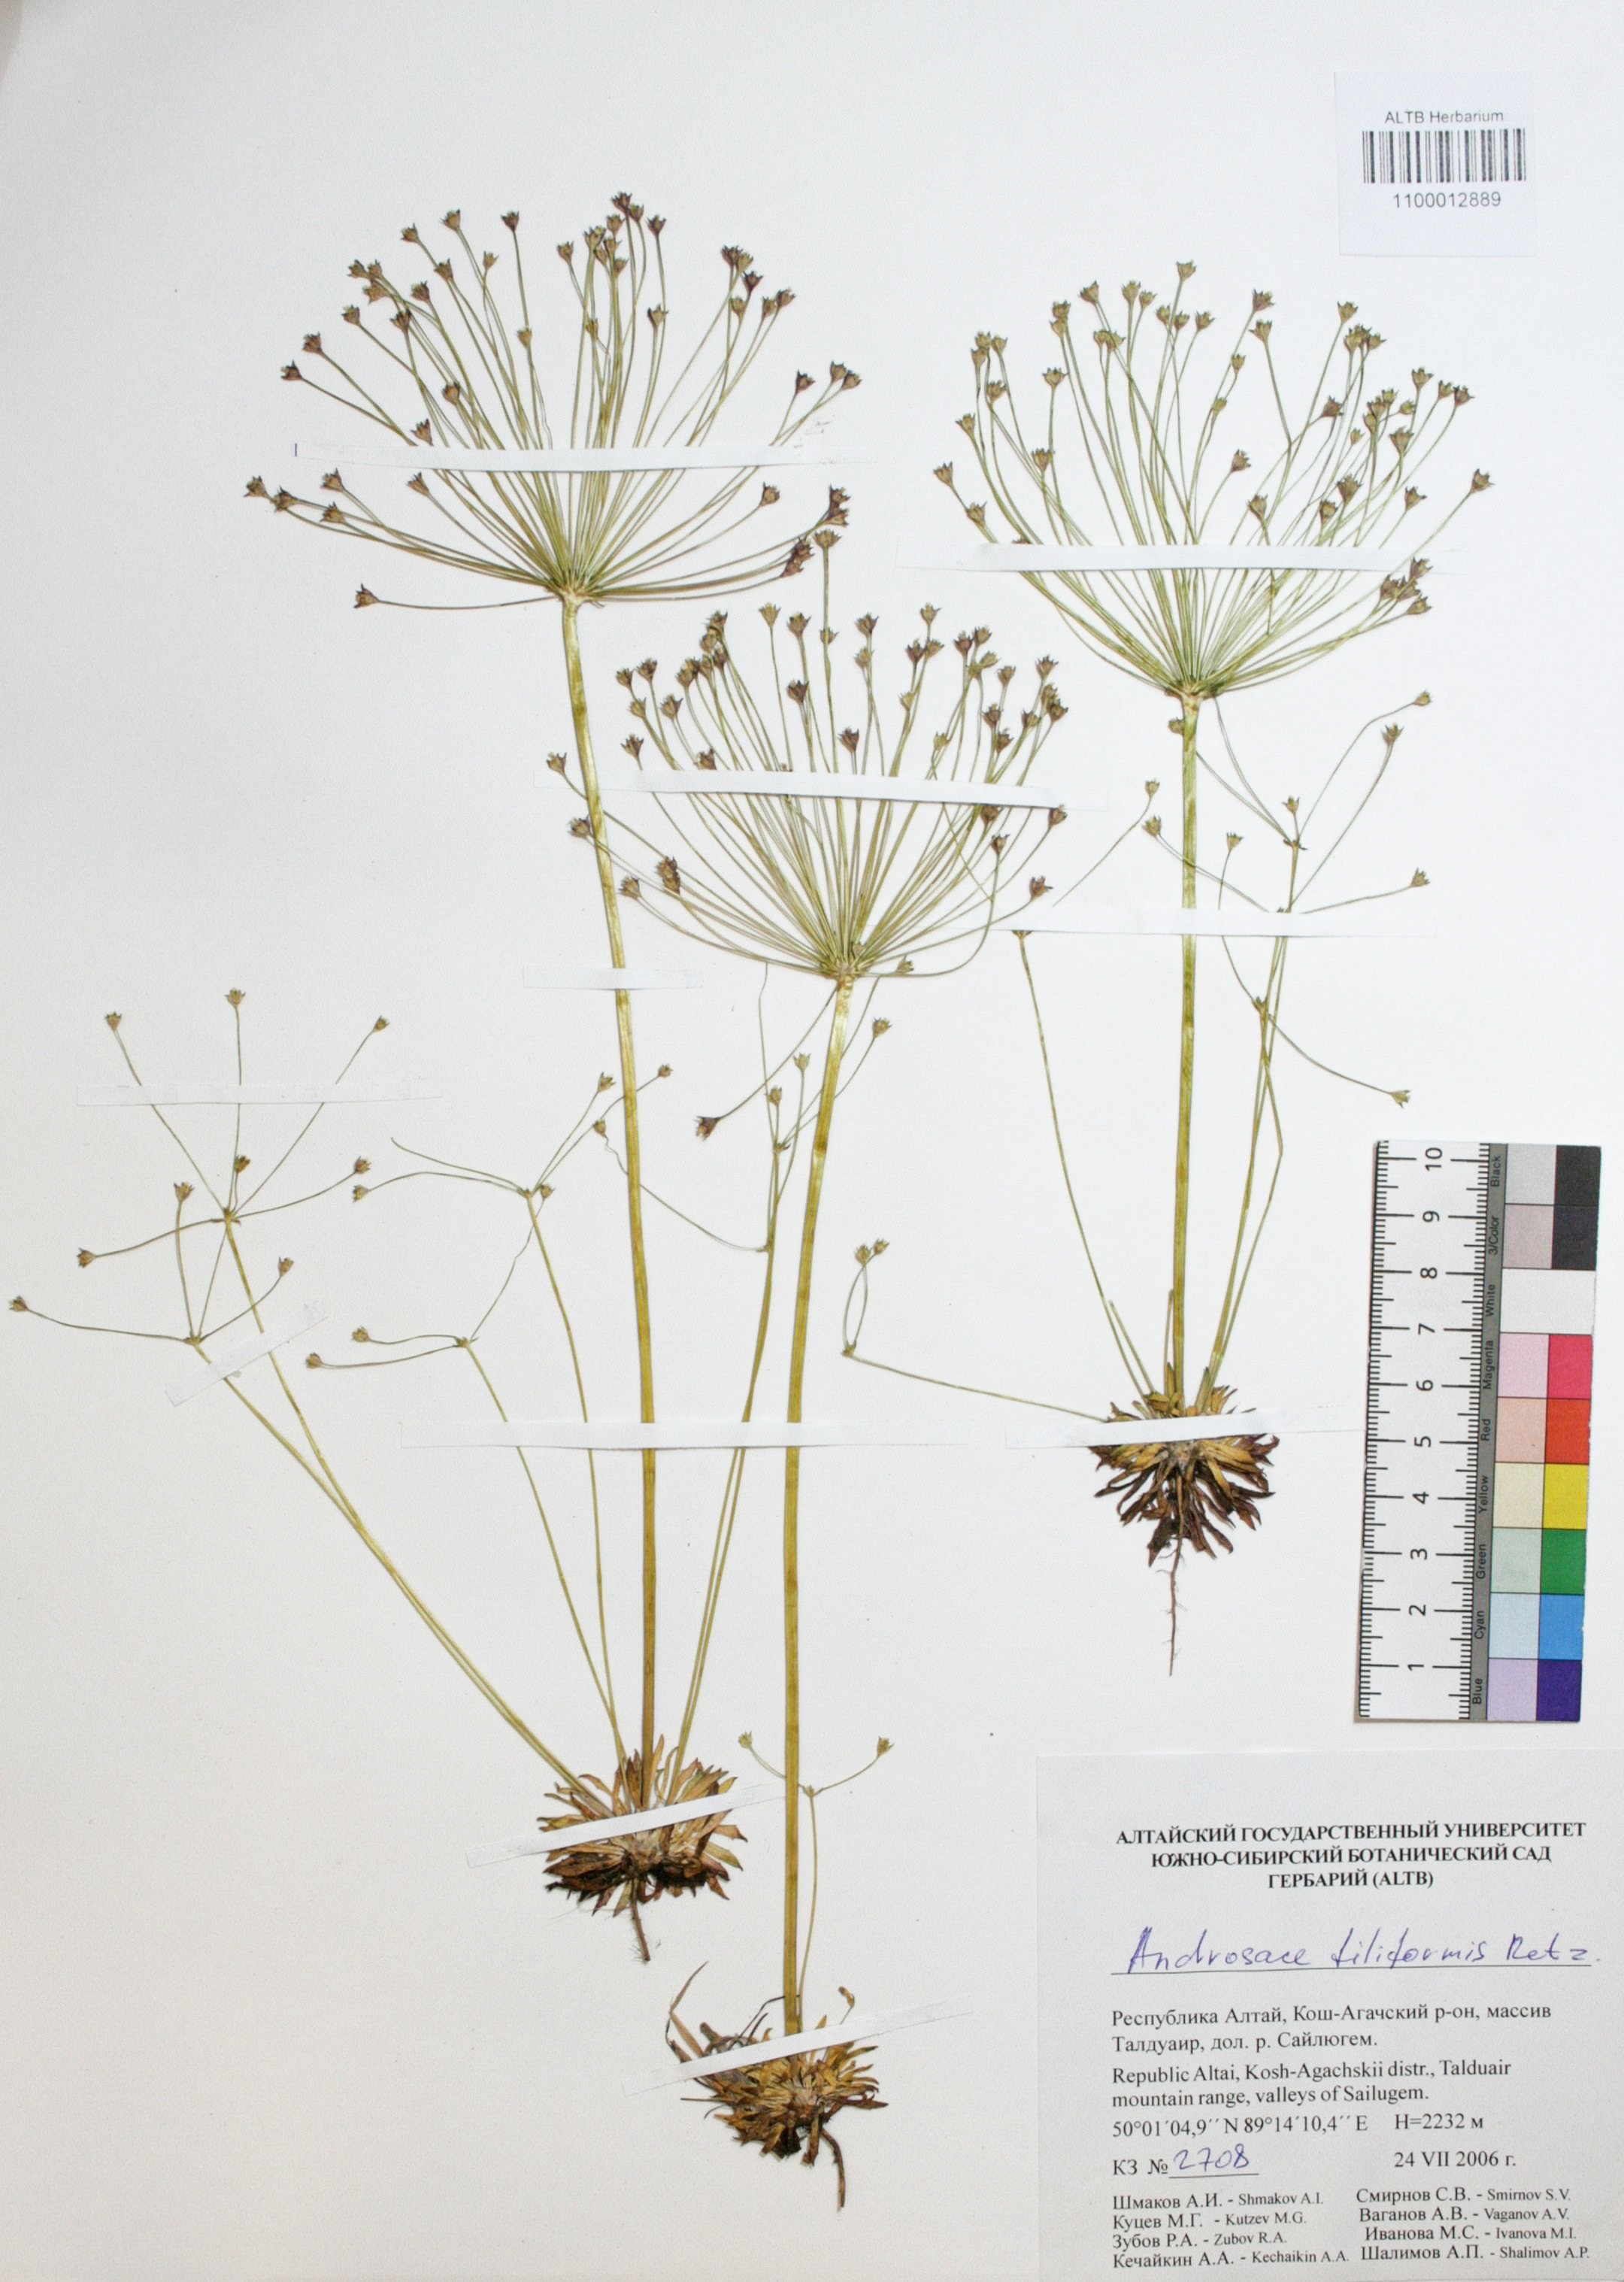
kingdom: Plantae
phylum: Tracheophyta
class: Magnoliopsida
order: Ericales
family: Primulaceae
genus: Androsace
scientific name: Androsace filiformis
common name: Filiform rock jasmine
